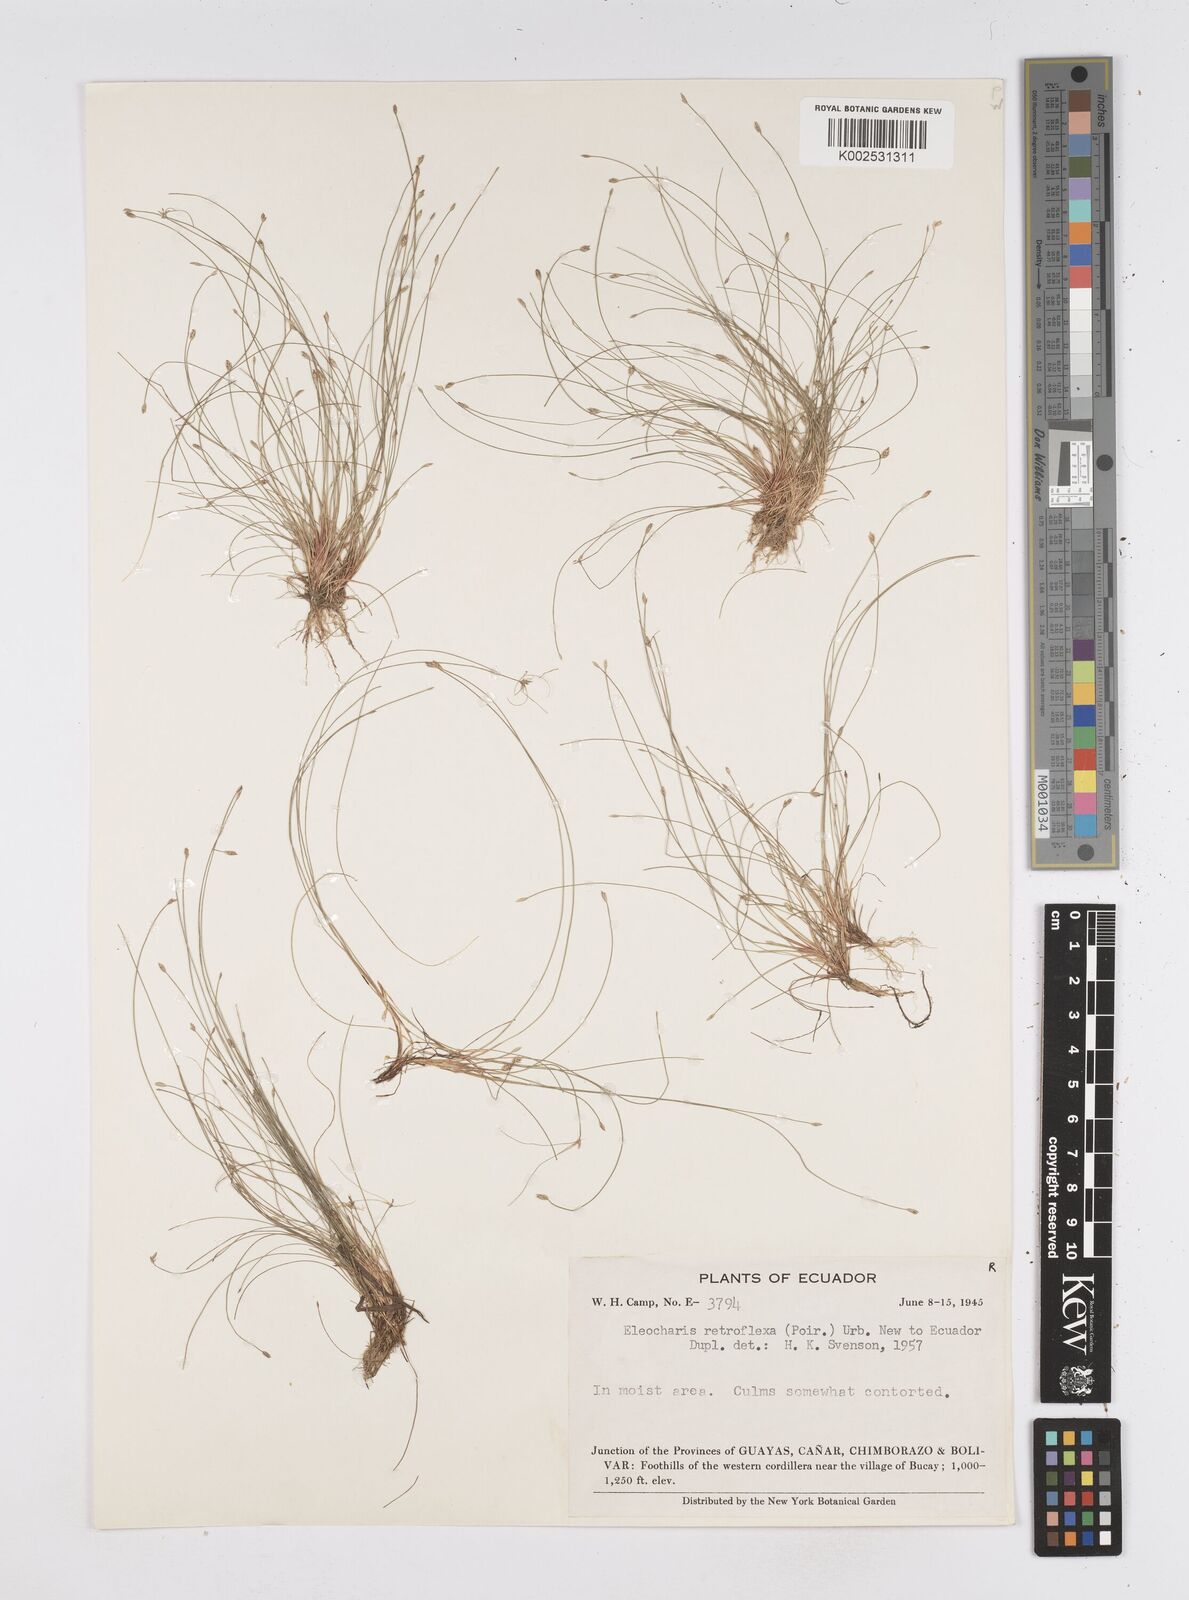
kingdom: Plantae
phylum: Tracheophyta
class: Liliopsida
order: Poales
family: Cyperaceae
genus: Eleocharis
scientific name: Eleocharis retroflexa
